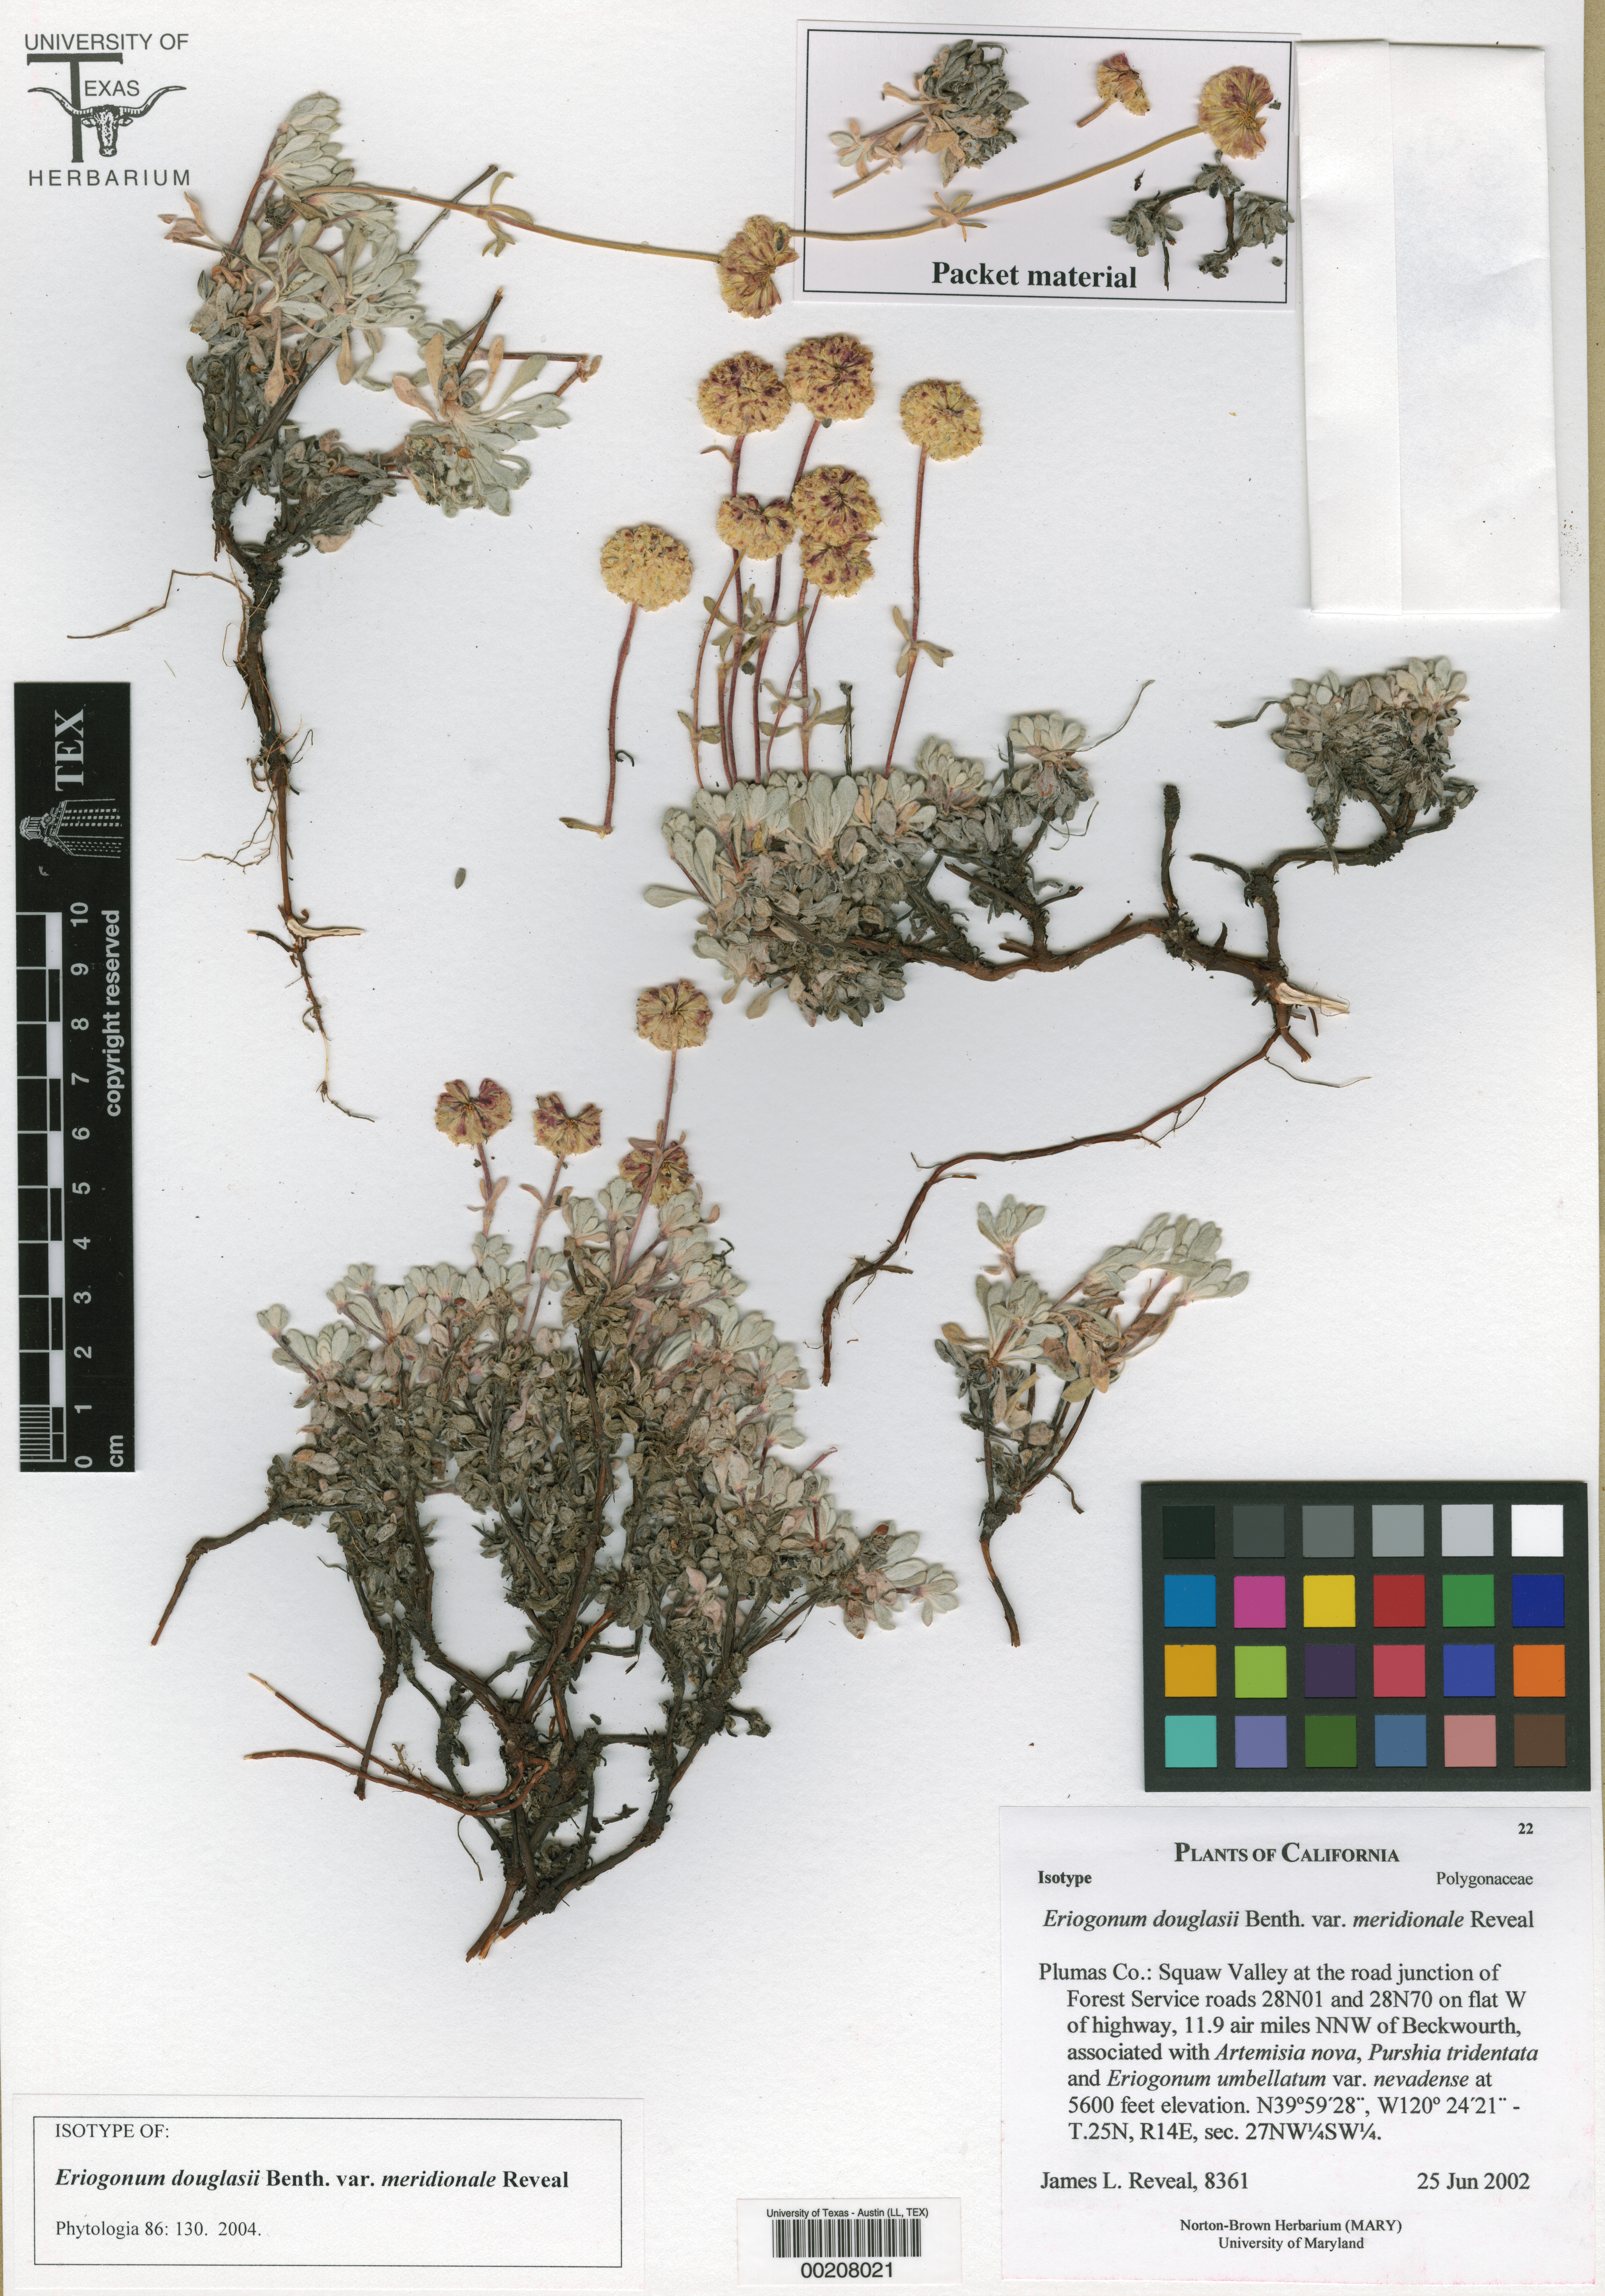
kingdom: Plantae
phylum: Tracheophyta
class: Magnoliopsida
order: Caryophyllales
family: Polygonaceae
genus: Eriogonum
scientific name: Eriogonum douglasii
